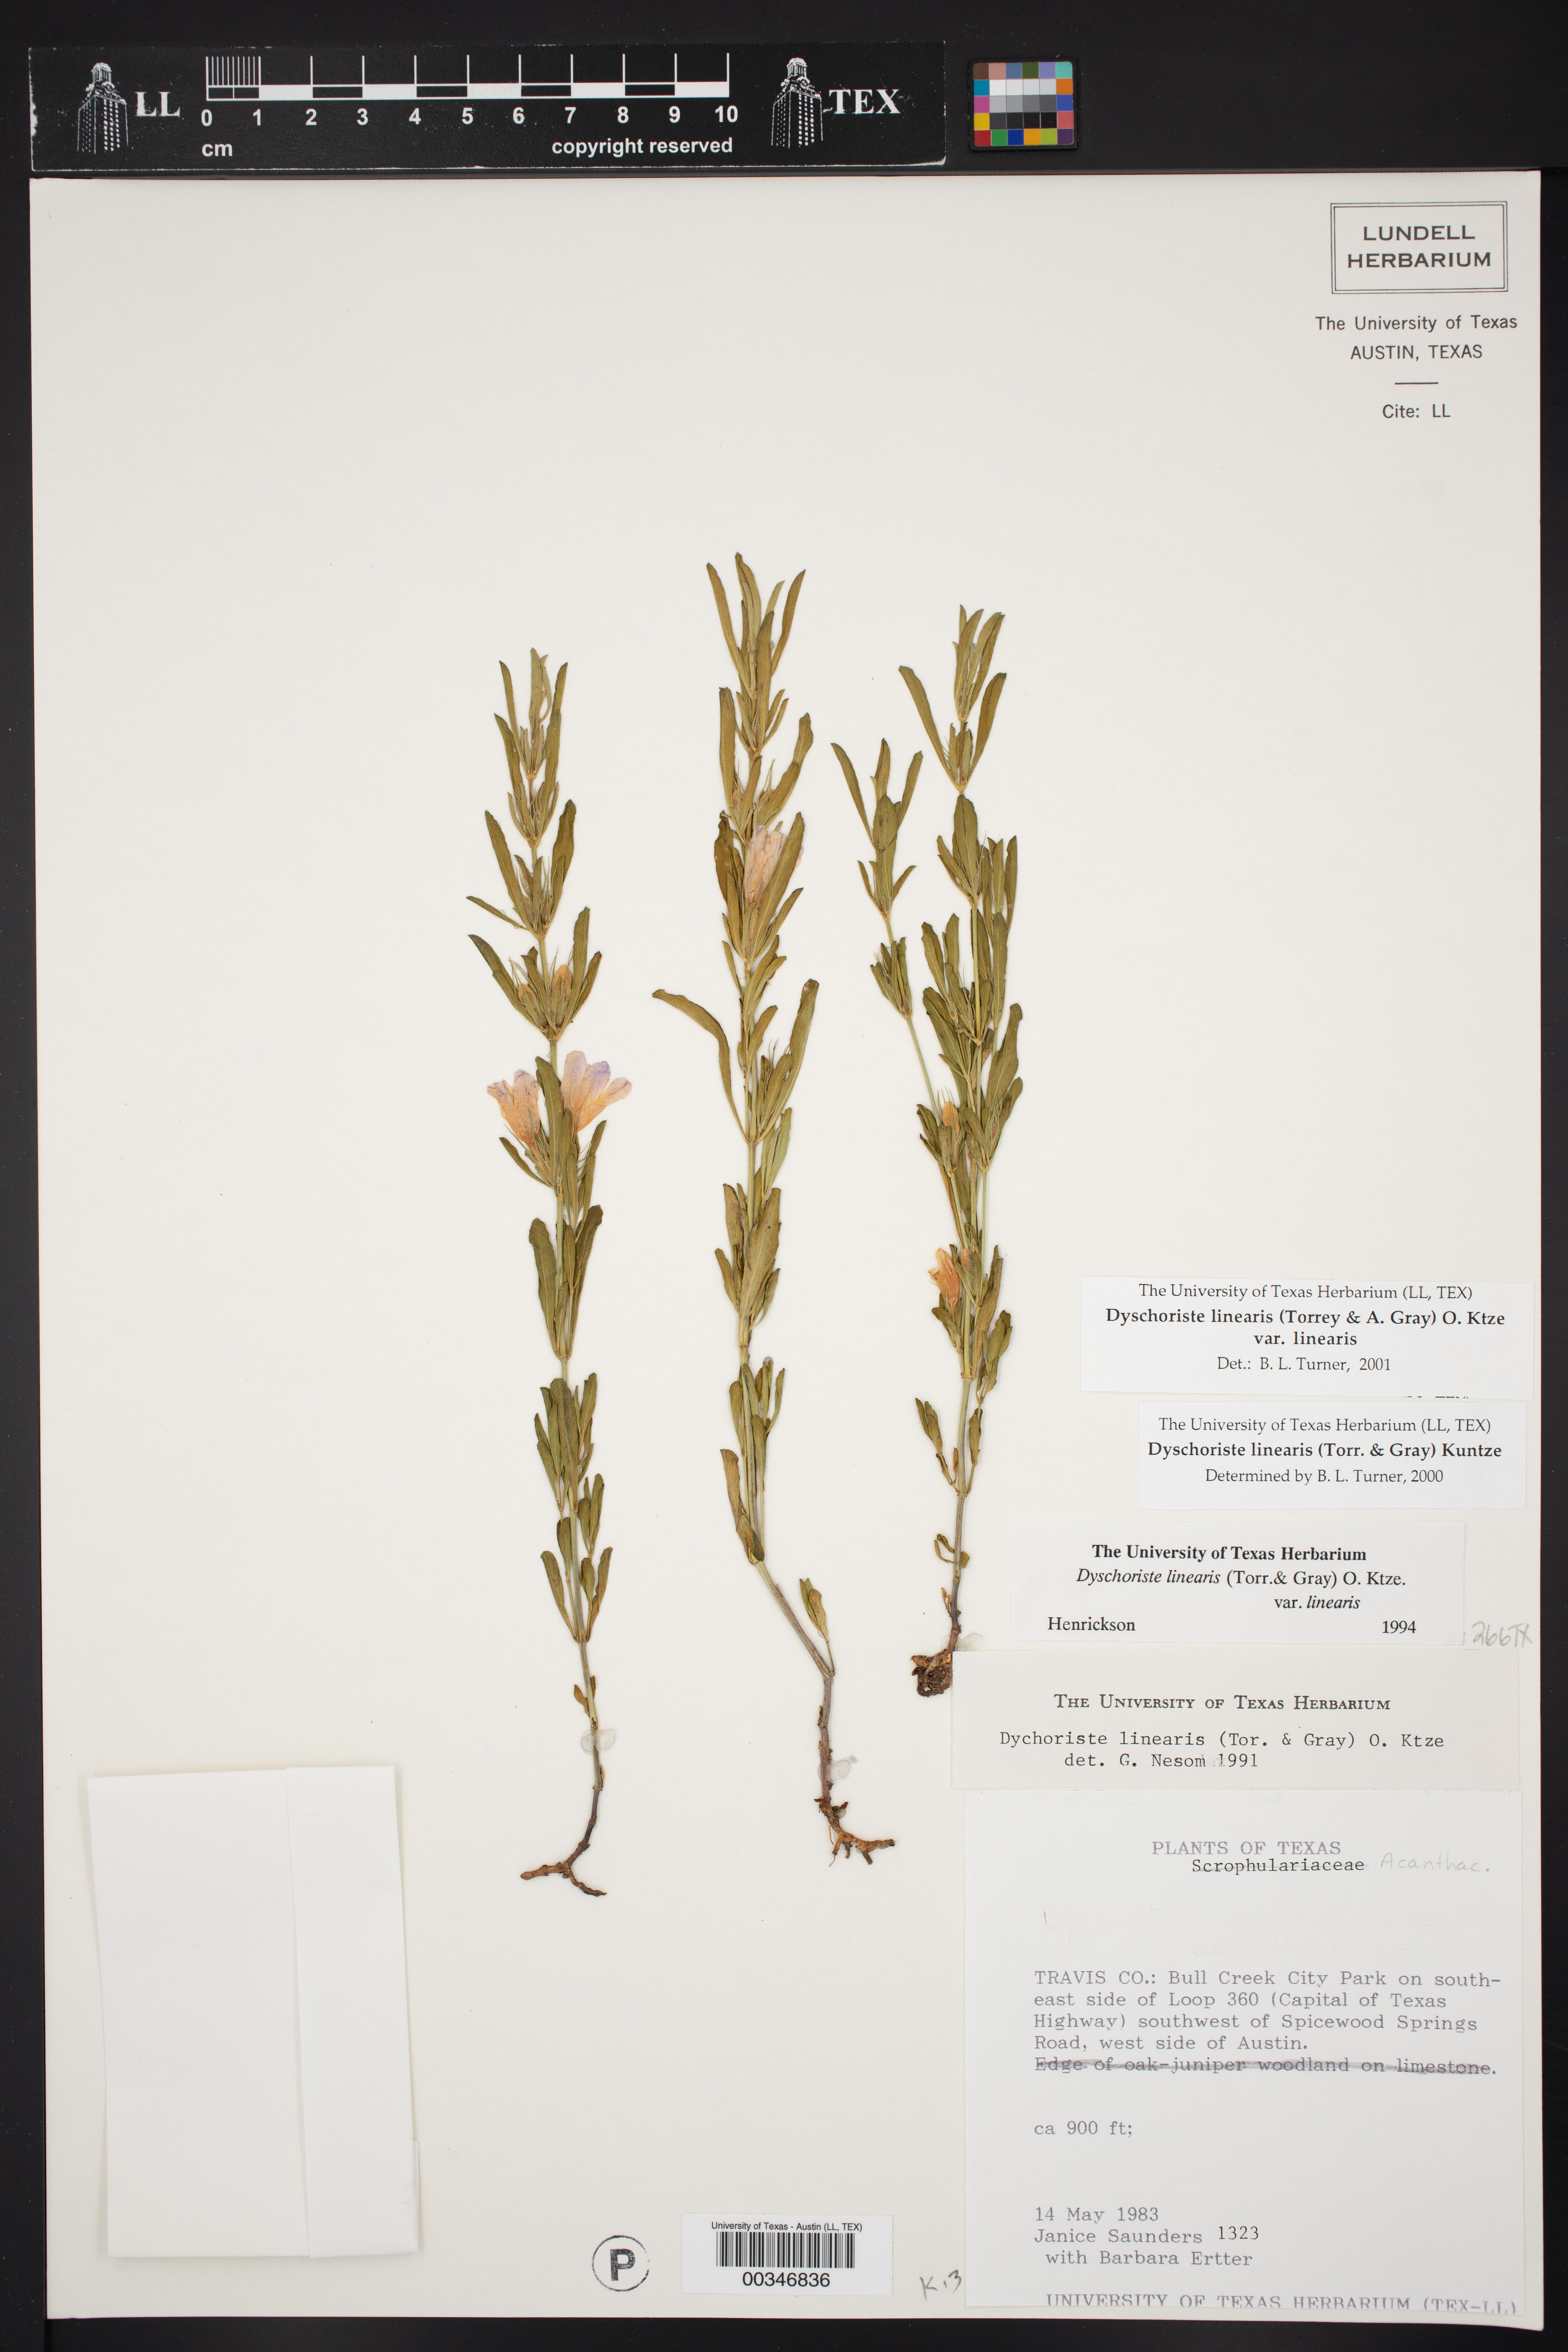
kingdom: Plantae
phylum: Tracheophyta
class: Magnoliopsida
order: Lamiales
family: Acanthaceae
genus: Dyschoriste
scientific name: Dyschoriste linearis
